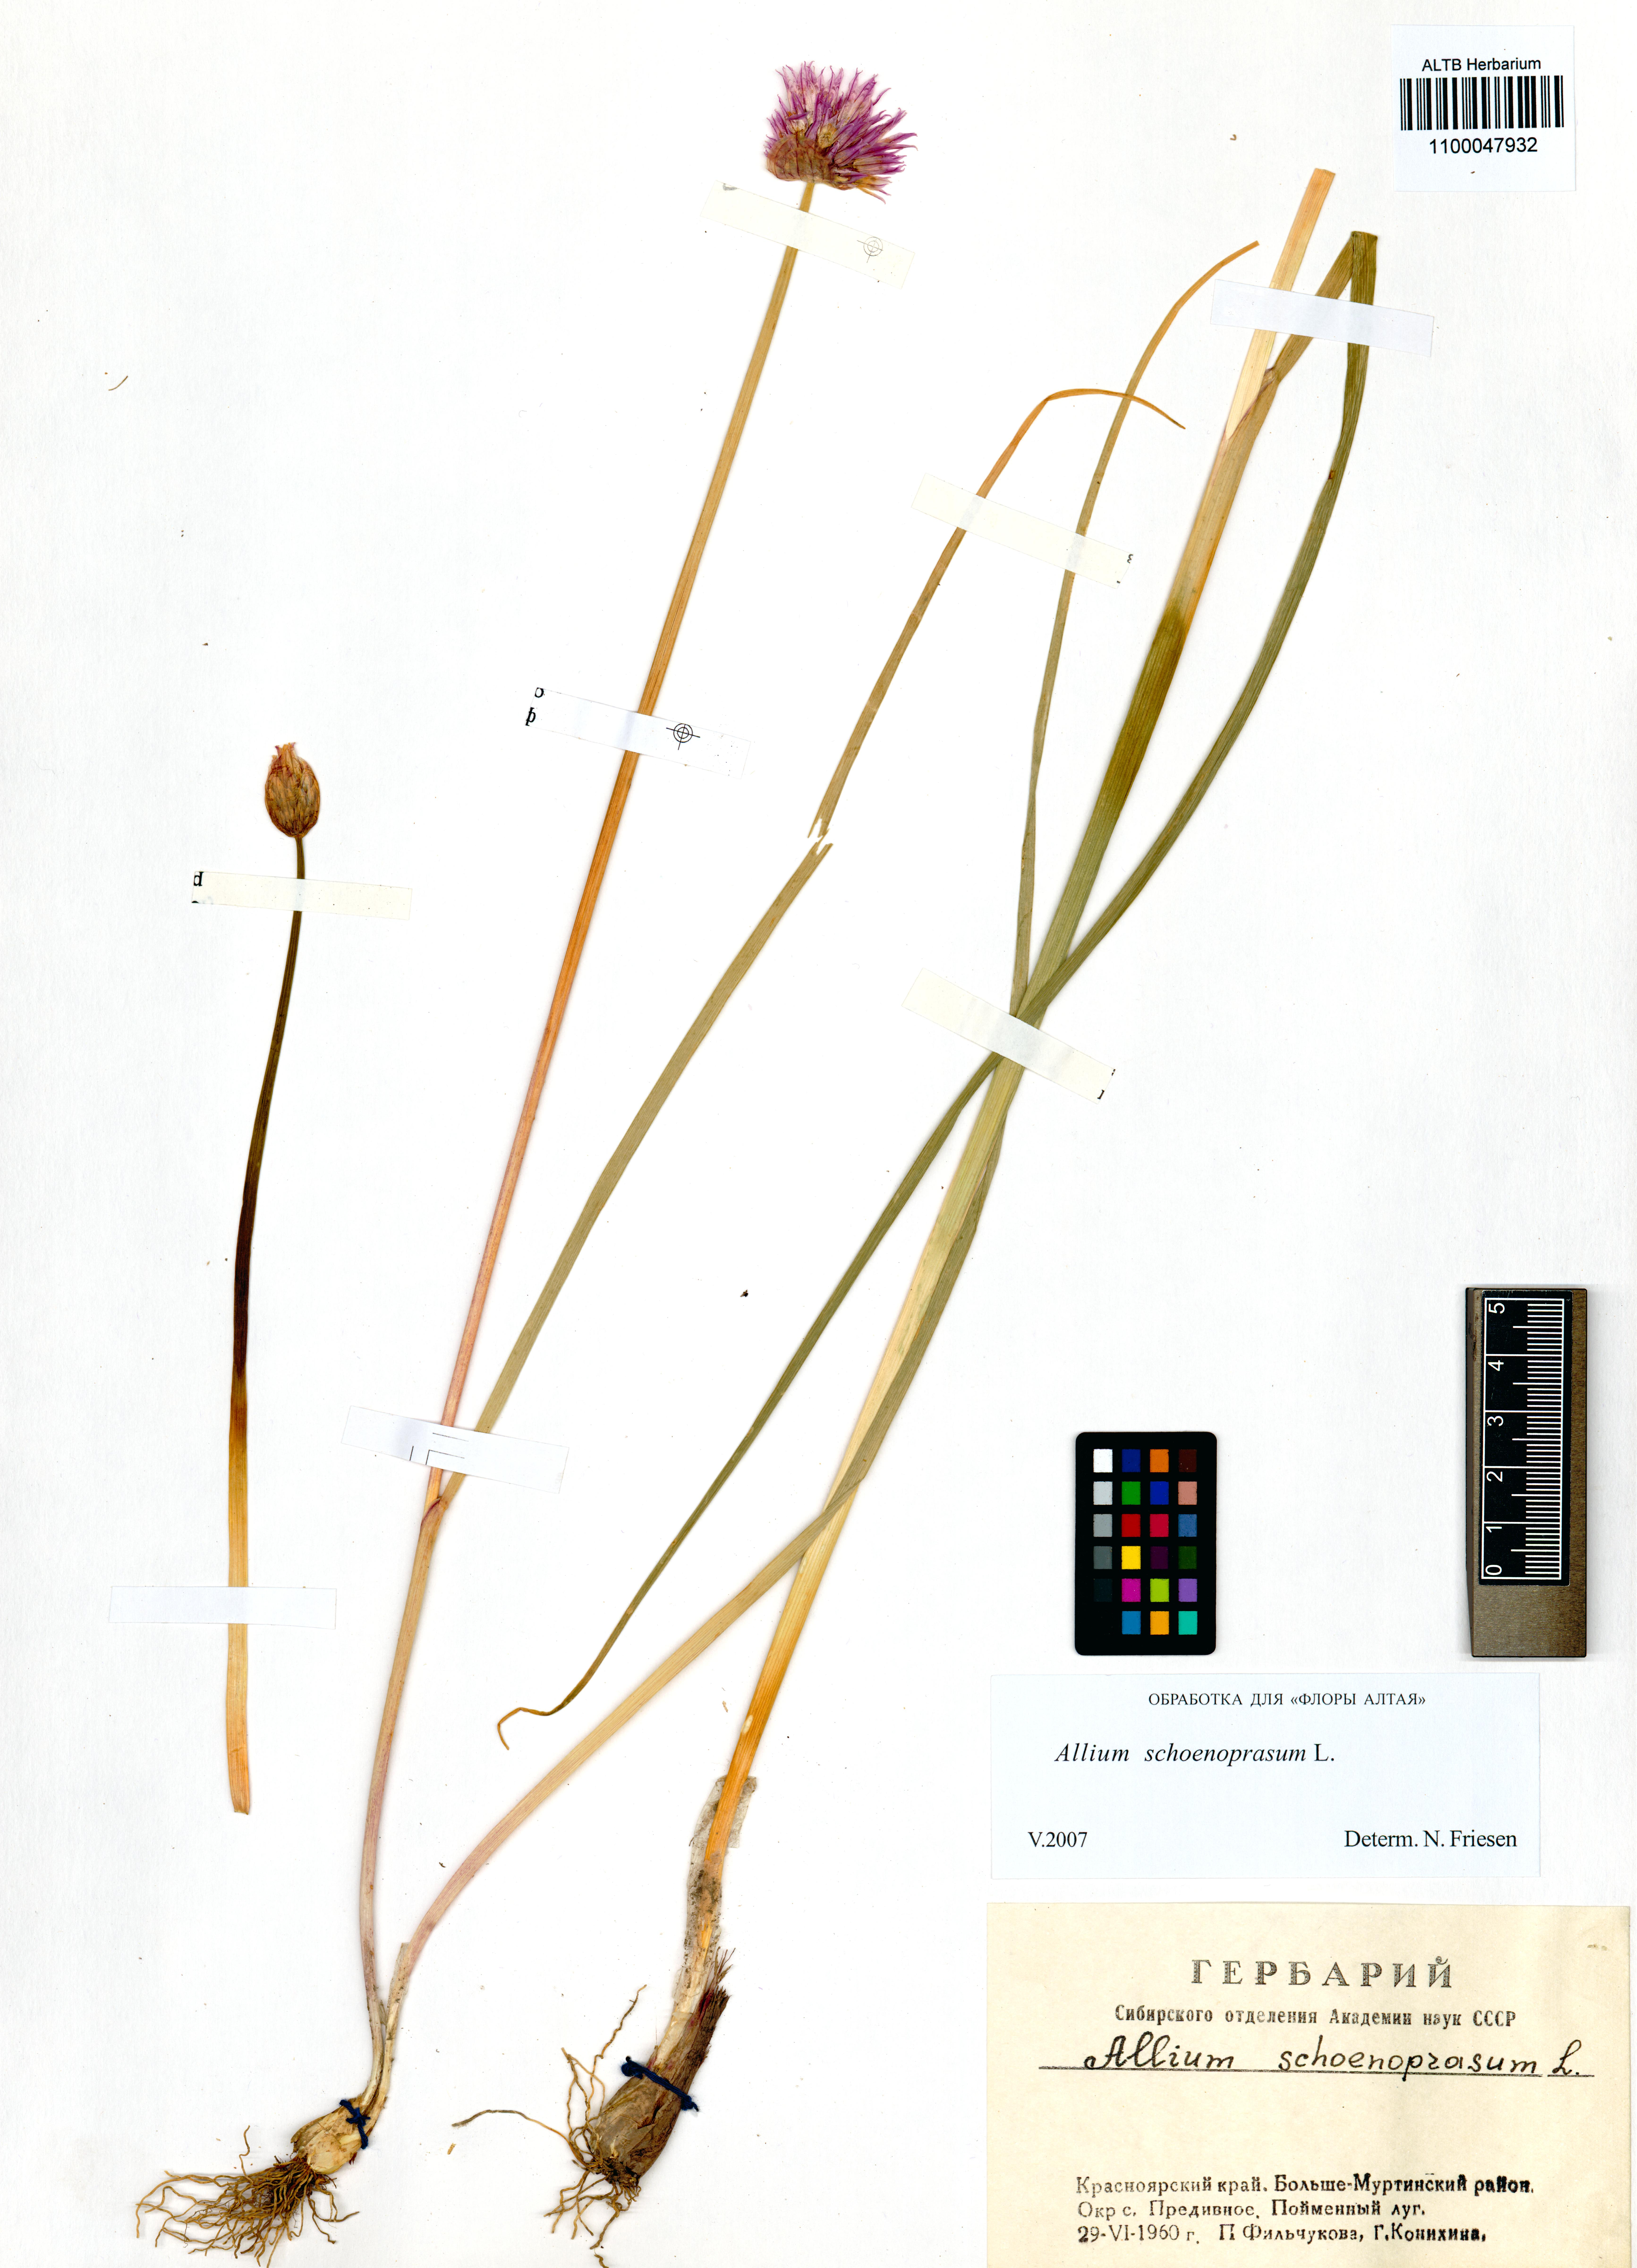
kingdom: Plantae
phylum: Tracheophyta
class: Liliopsida
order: Asparagales
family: Amaryllidaceae
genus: Allium
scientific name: Allium schoenoprasum
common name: Chives
